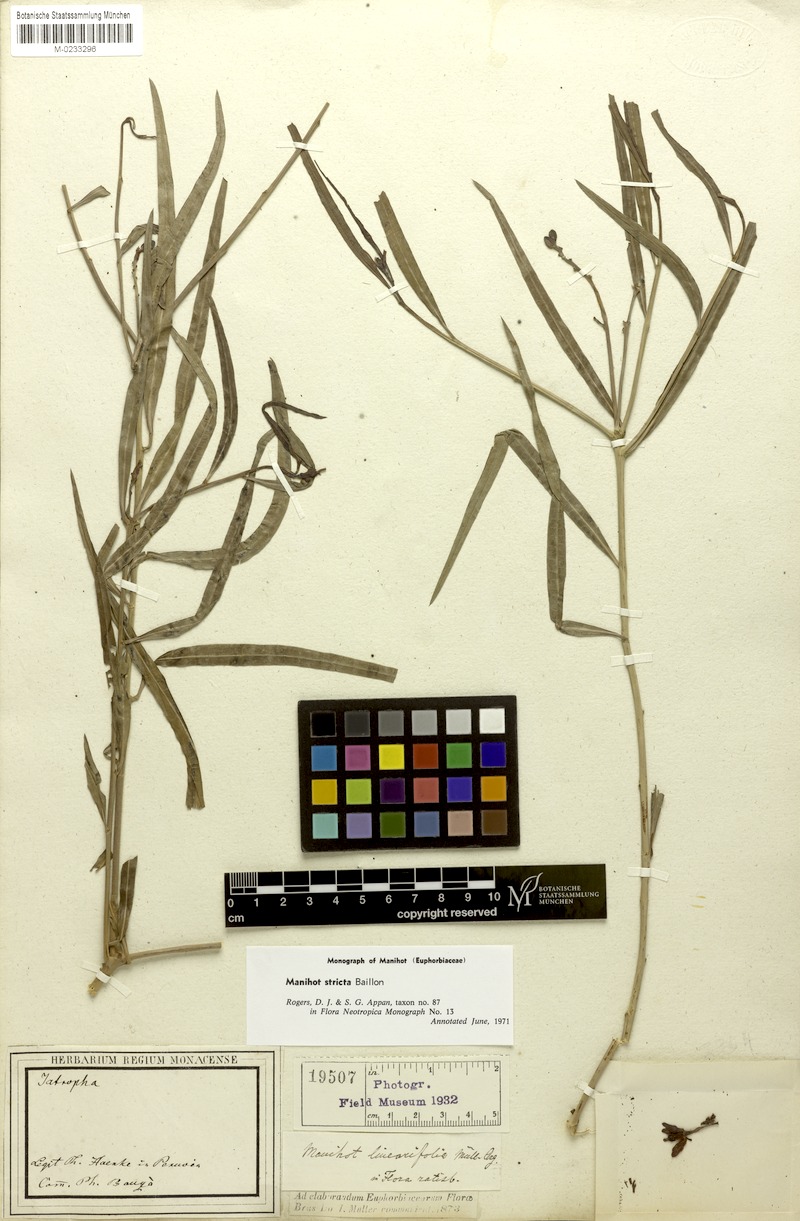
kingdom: Plantae
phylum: Tracheophyta
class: Magnoliopsida
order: Malpighiales
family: Euphorbiaceae
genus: Manihot
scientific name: Manihot stricta
